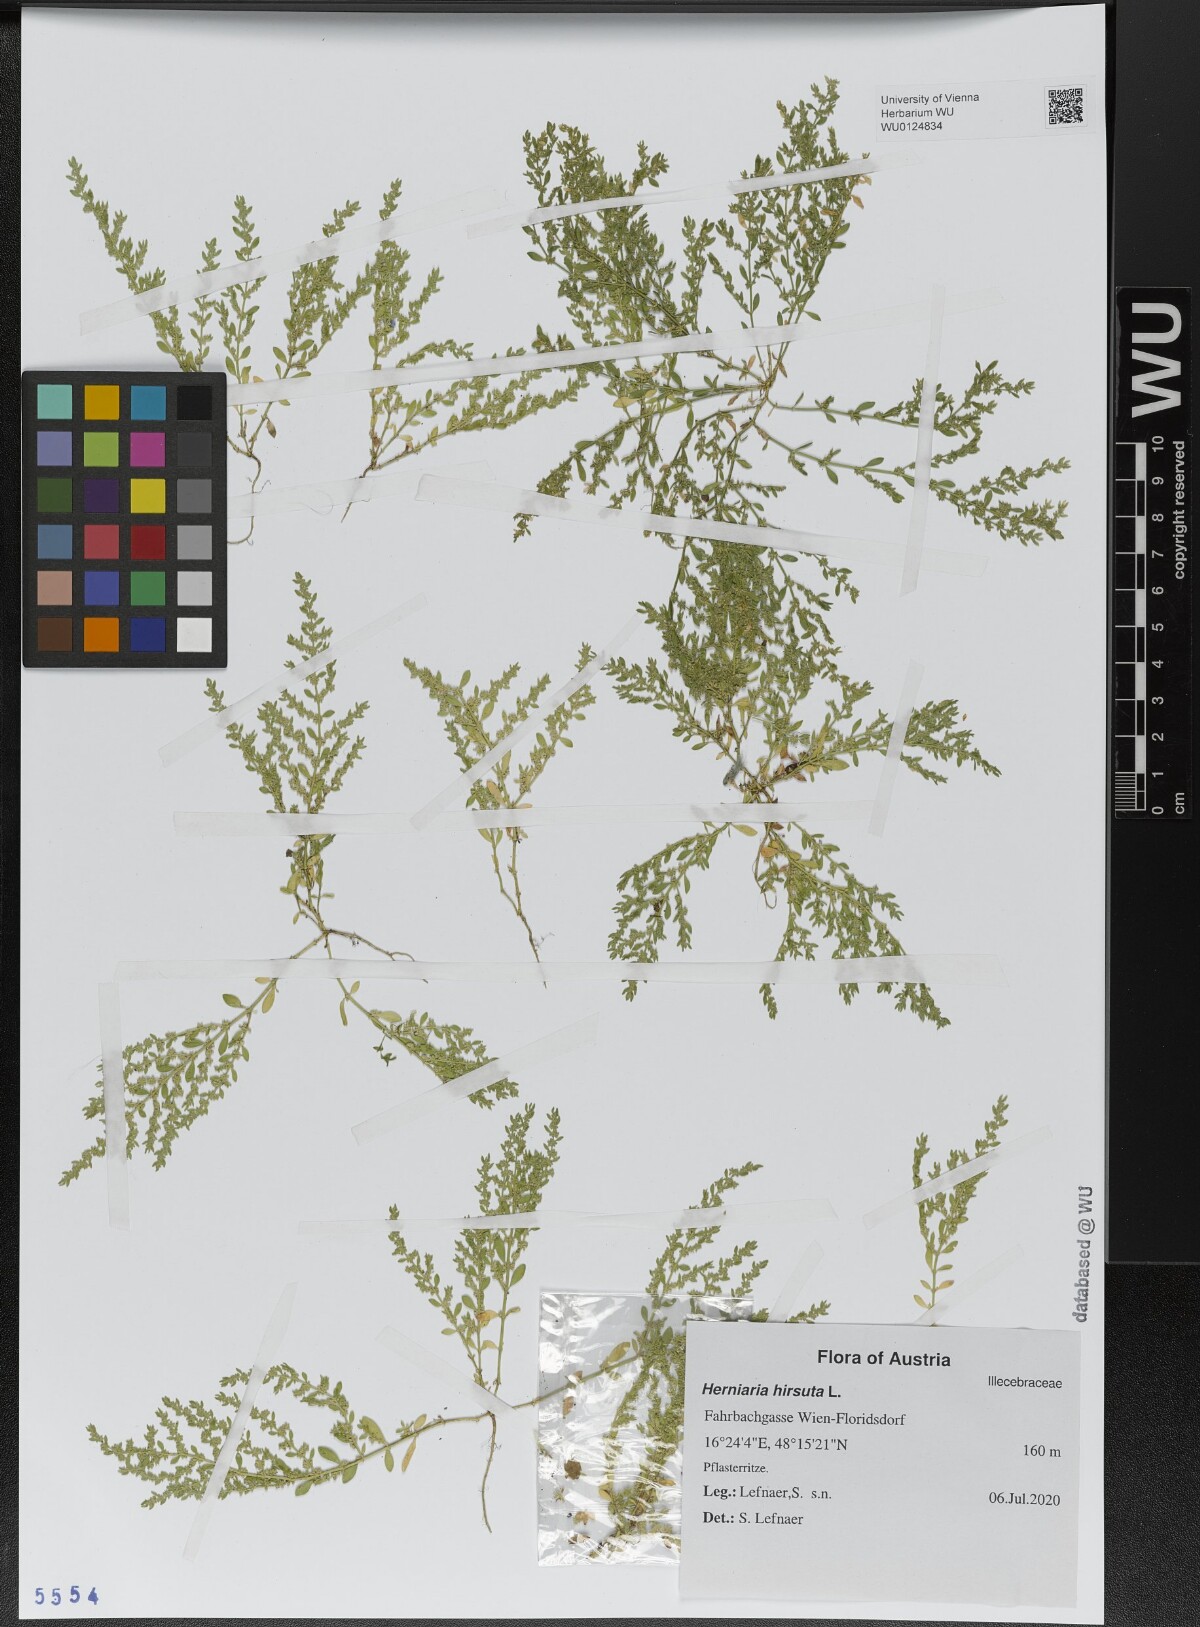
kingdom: Plantae
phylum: Tracheophyta
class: Magnoliopsida
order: Caryophyllales
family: Caryophyllaceae
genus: Herniaria
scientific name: Herniaria hirsuta
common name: Hairy rupturewort
